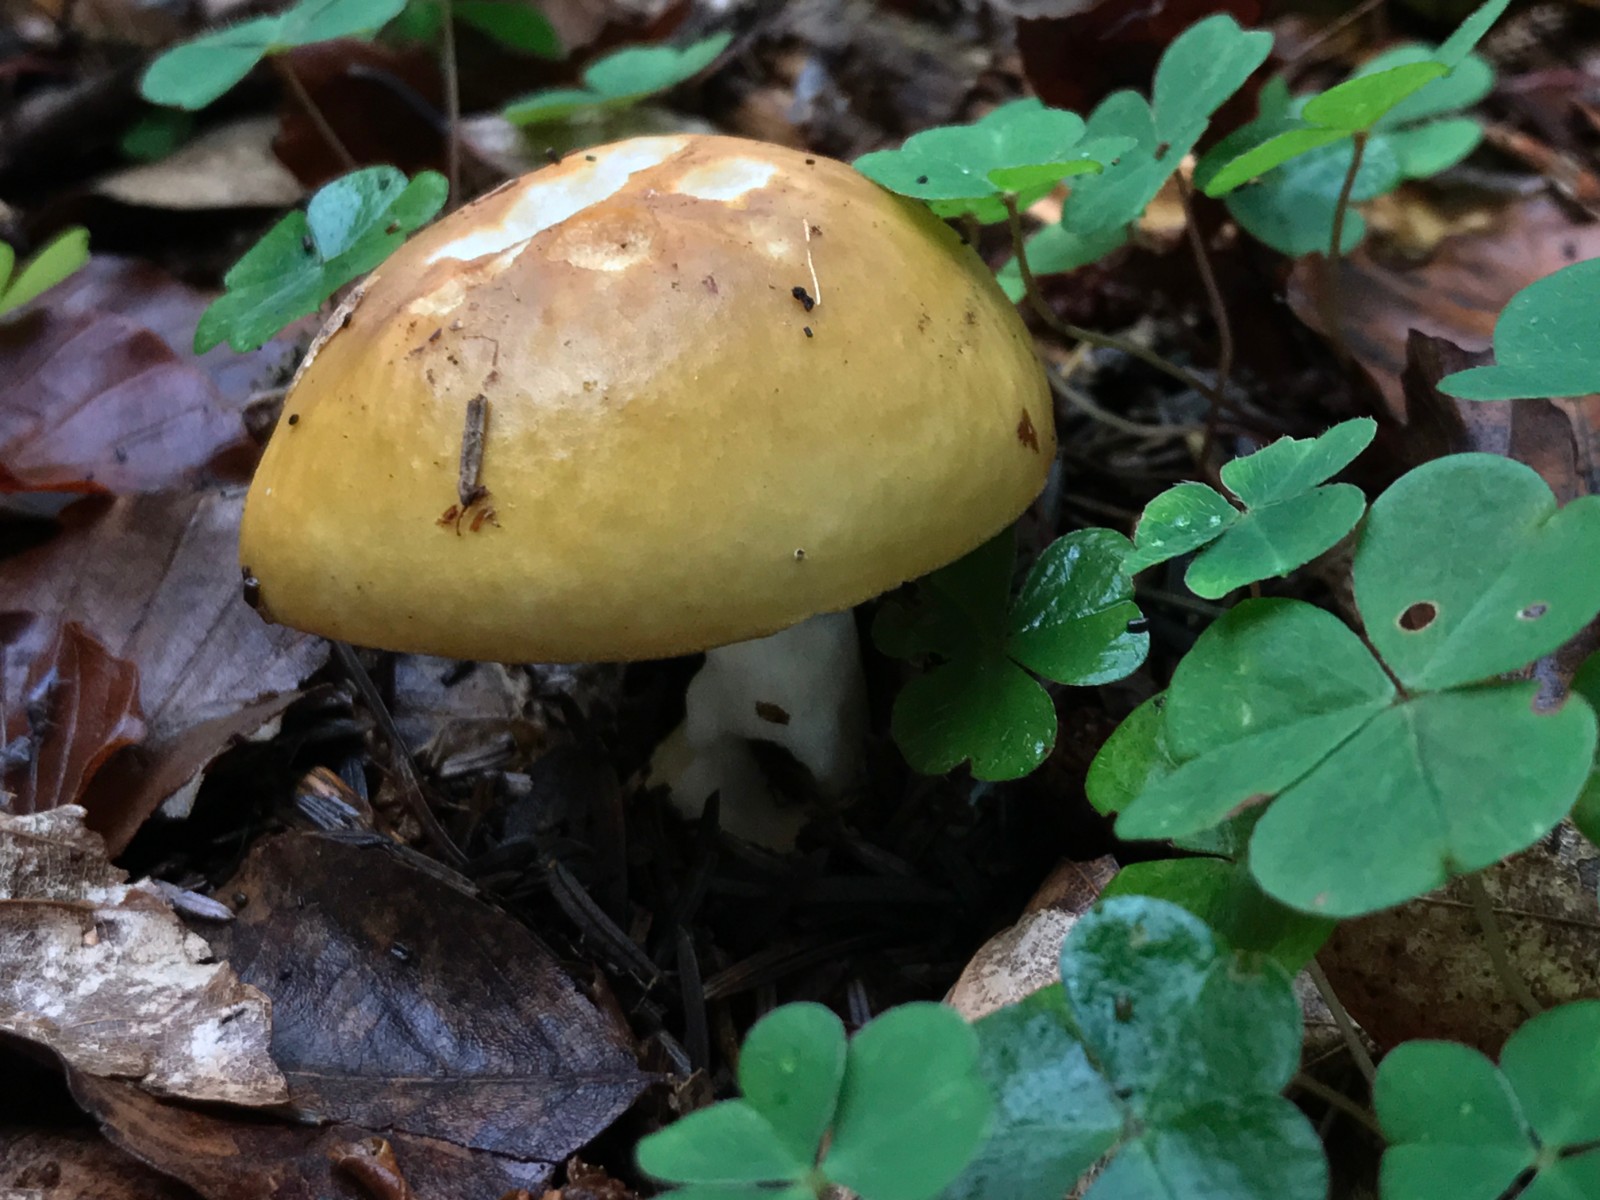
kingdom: Fungi
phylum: Basidiomycota
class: Agaricomycetes
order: Russulales
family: Russulaceae
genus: Russula
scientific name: Russula ochroleuca
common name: okkergul skørhat
